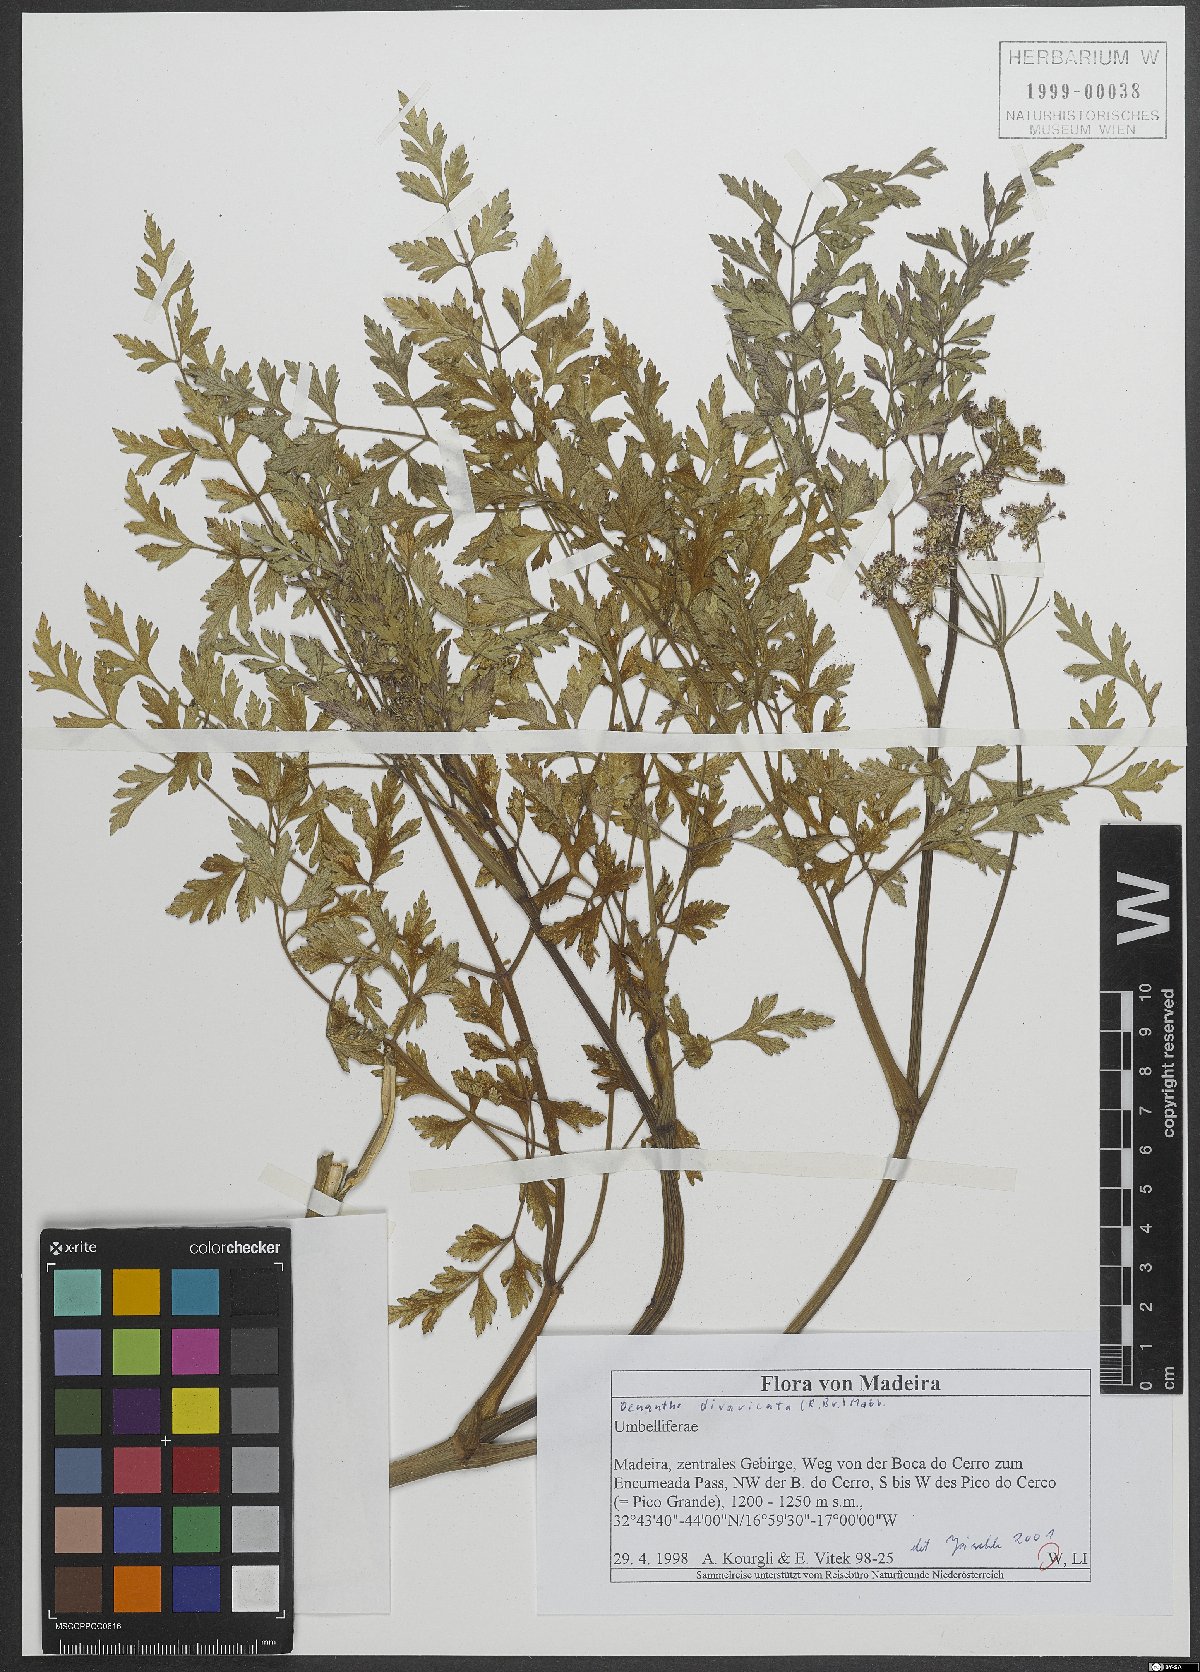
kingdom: Plantae
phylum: Tracheophyta
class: Magnoliopsida
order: Apiales
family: Apiaceae
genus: Oenanthe
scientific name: Oenanthe pteridifolia
